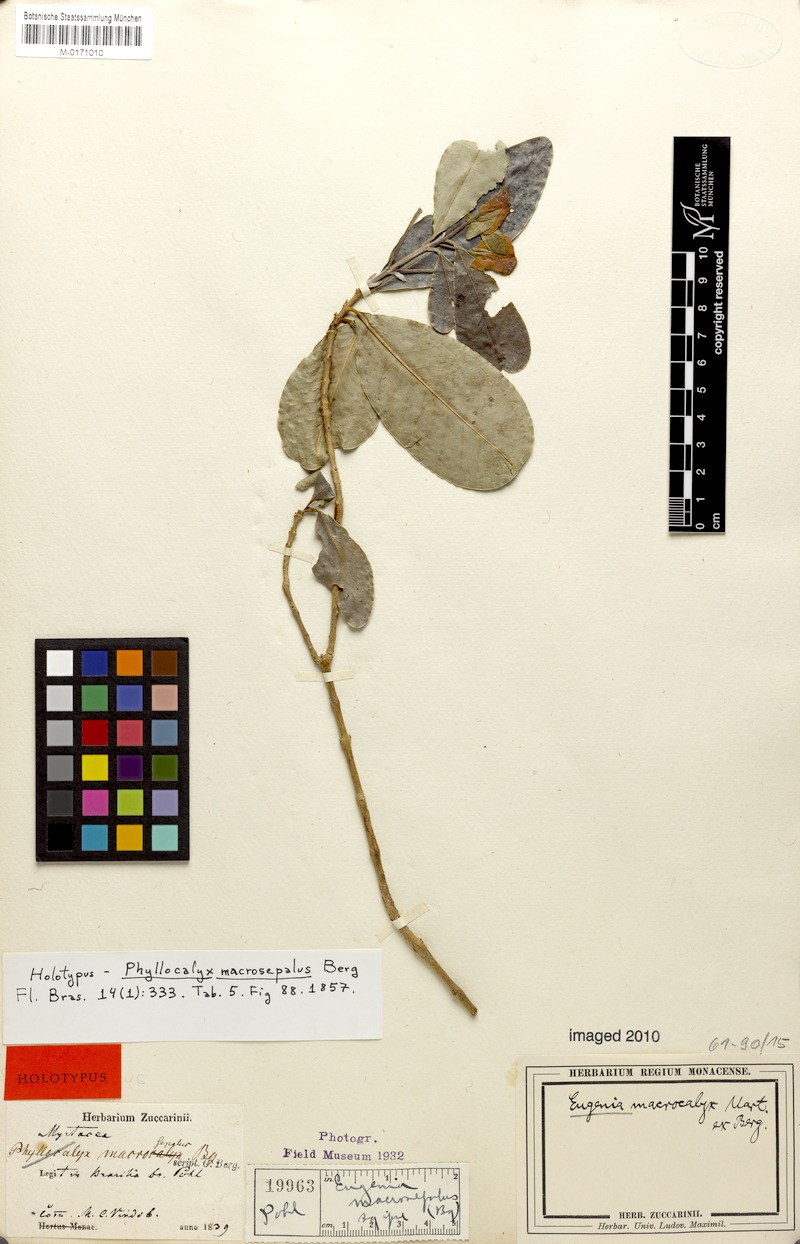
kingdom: Plantae
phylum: Tracheophyta
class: Magnoliopsida
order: Myrtales
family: Myrtaceae
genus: Eugenia
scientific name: Eugenia speciosa
